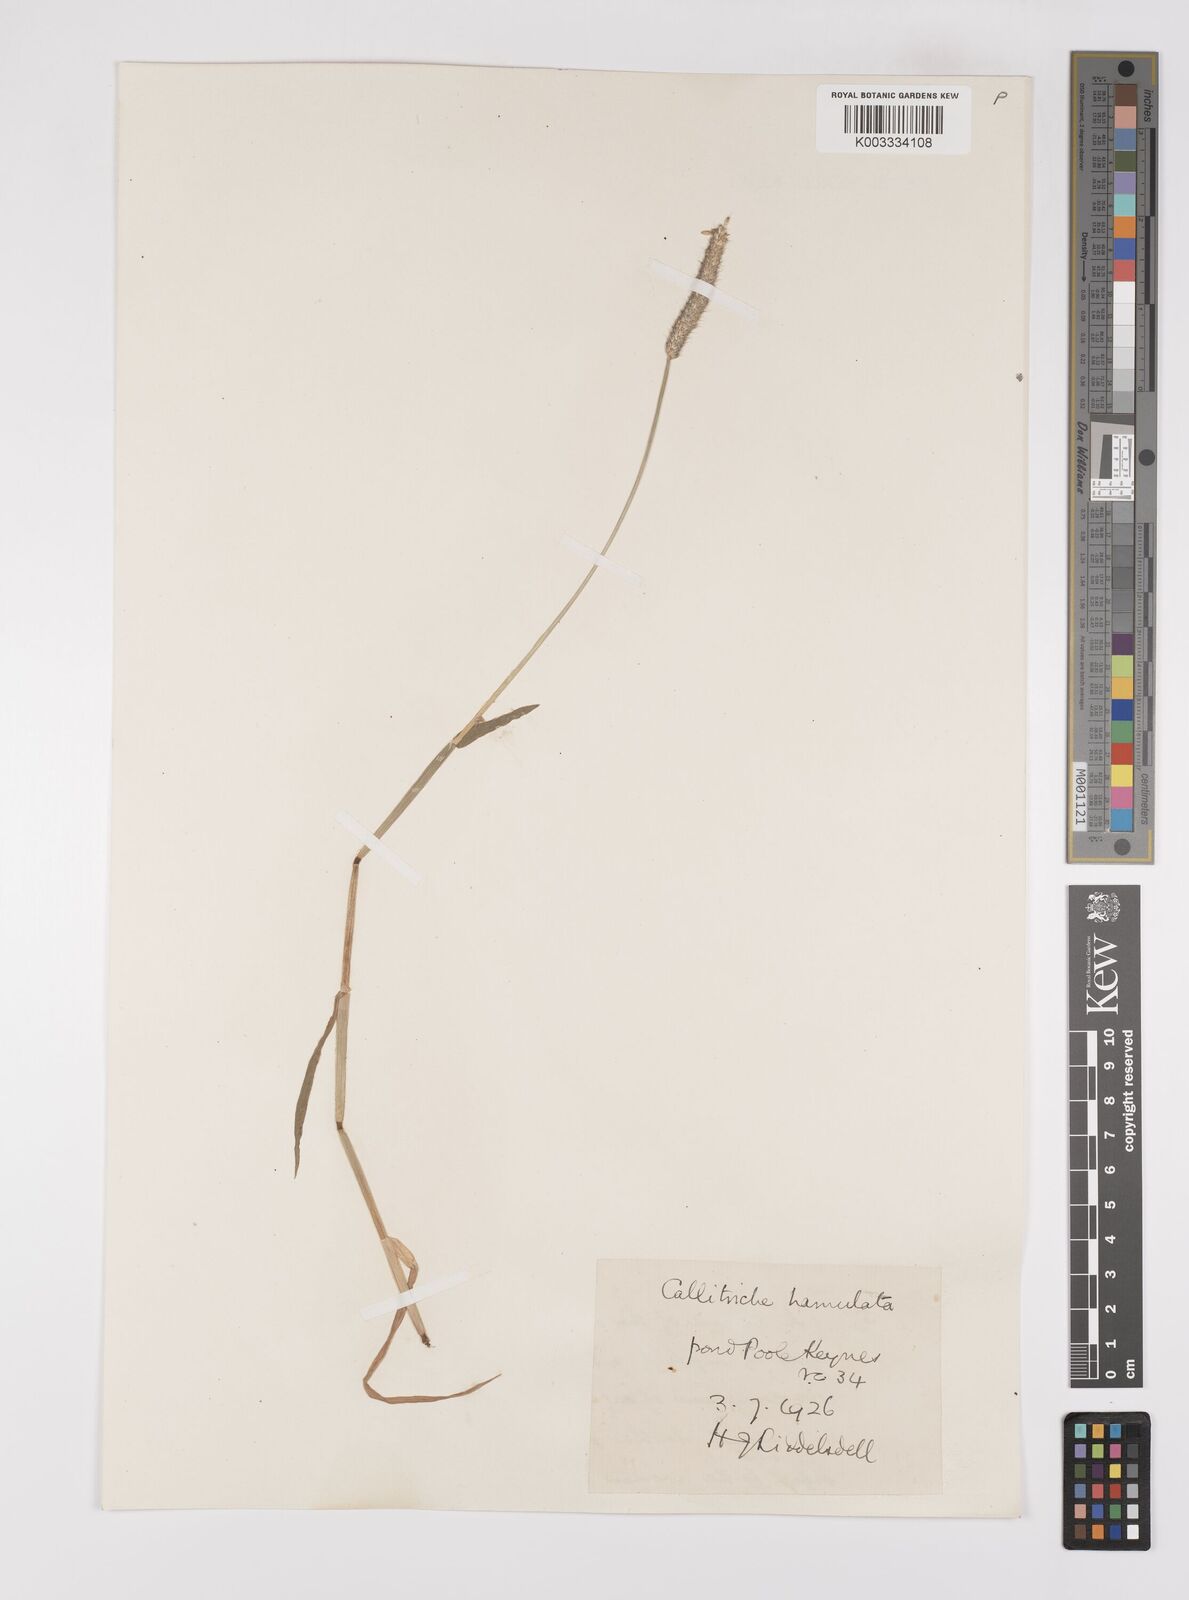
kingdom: Plantae
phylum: Tracheophyta
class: Liliopsida
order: Poales
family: Poaceae
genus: Alopecurus
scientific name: Alopecurus geniculatus
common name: Water foxtail
